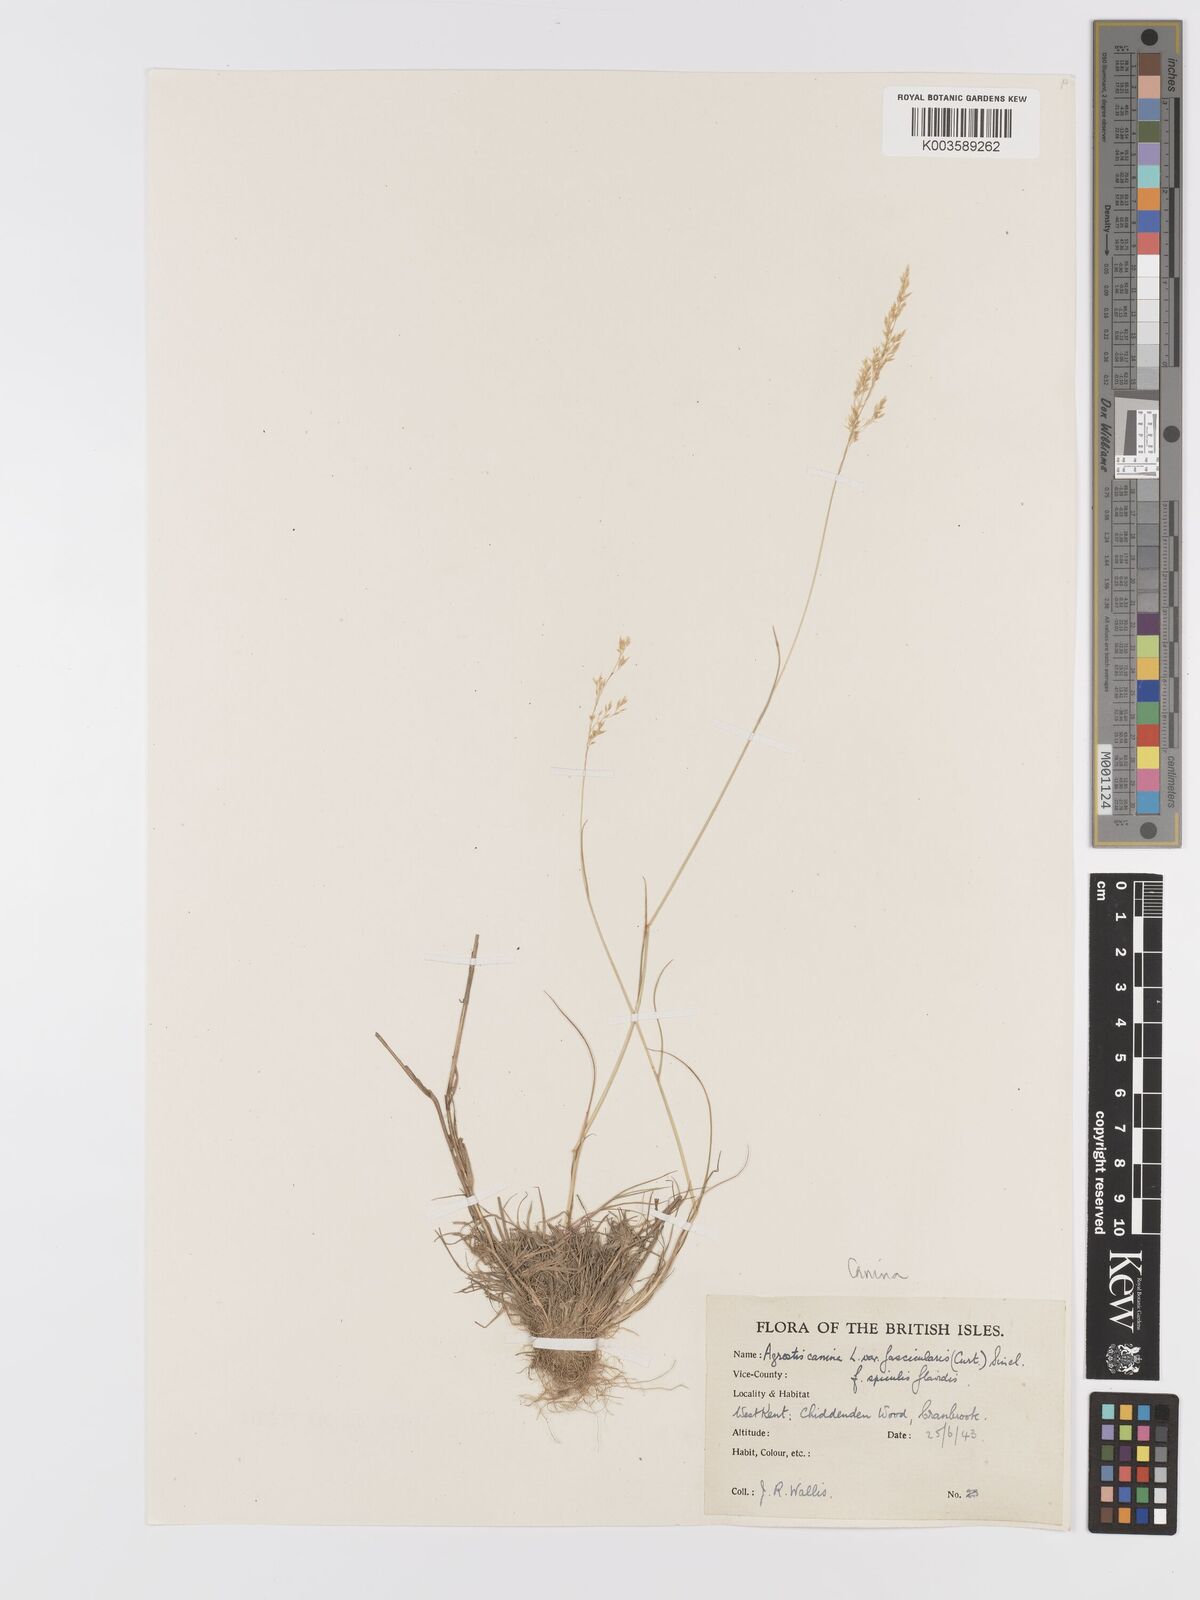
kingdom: Plantae
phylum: Tracheophyta
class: Liliopsida
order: Poales
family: Poaceae
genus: Agrostis
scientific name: Agrostis canina
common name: Velvet bent
